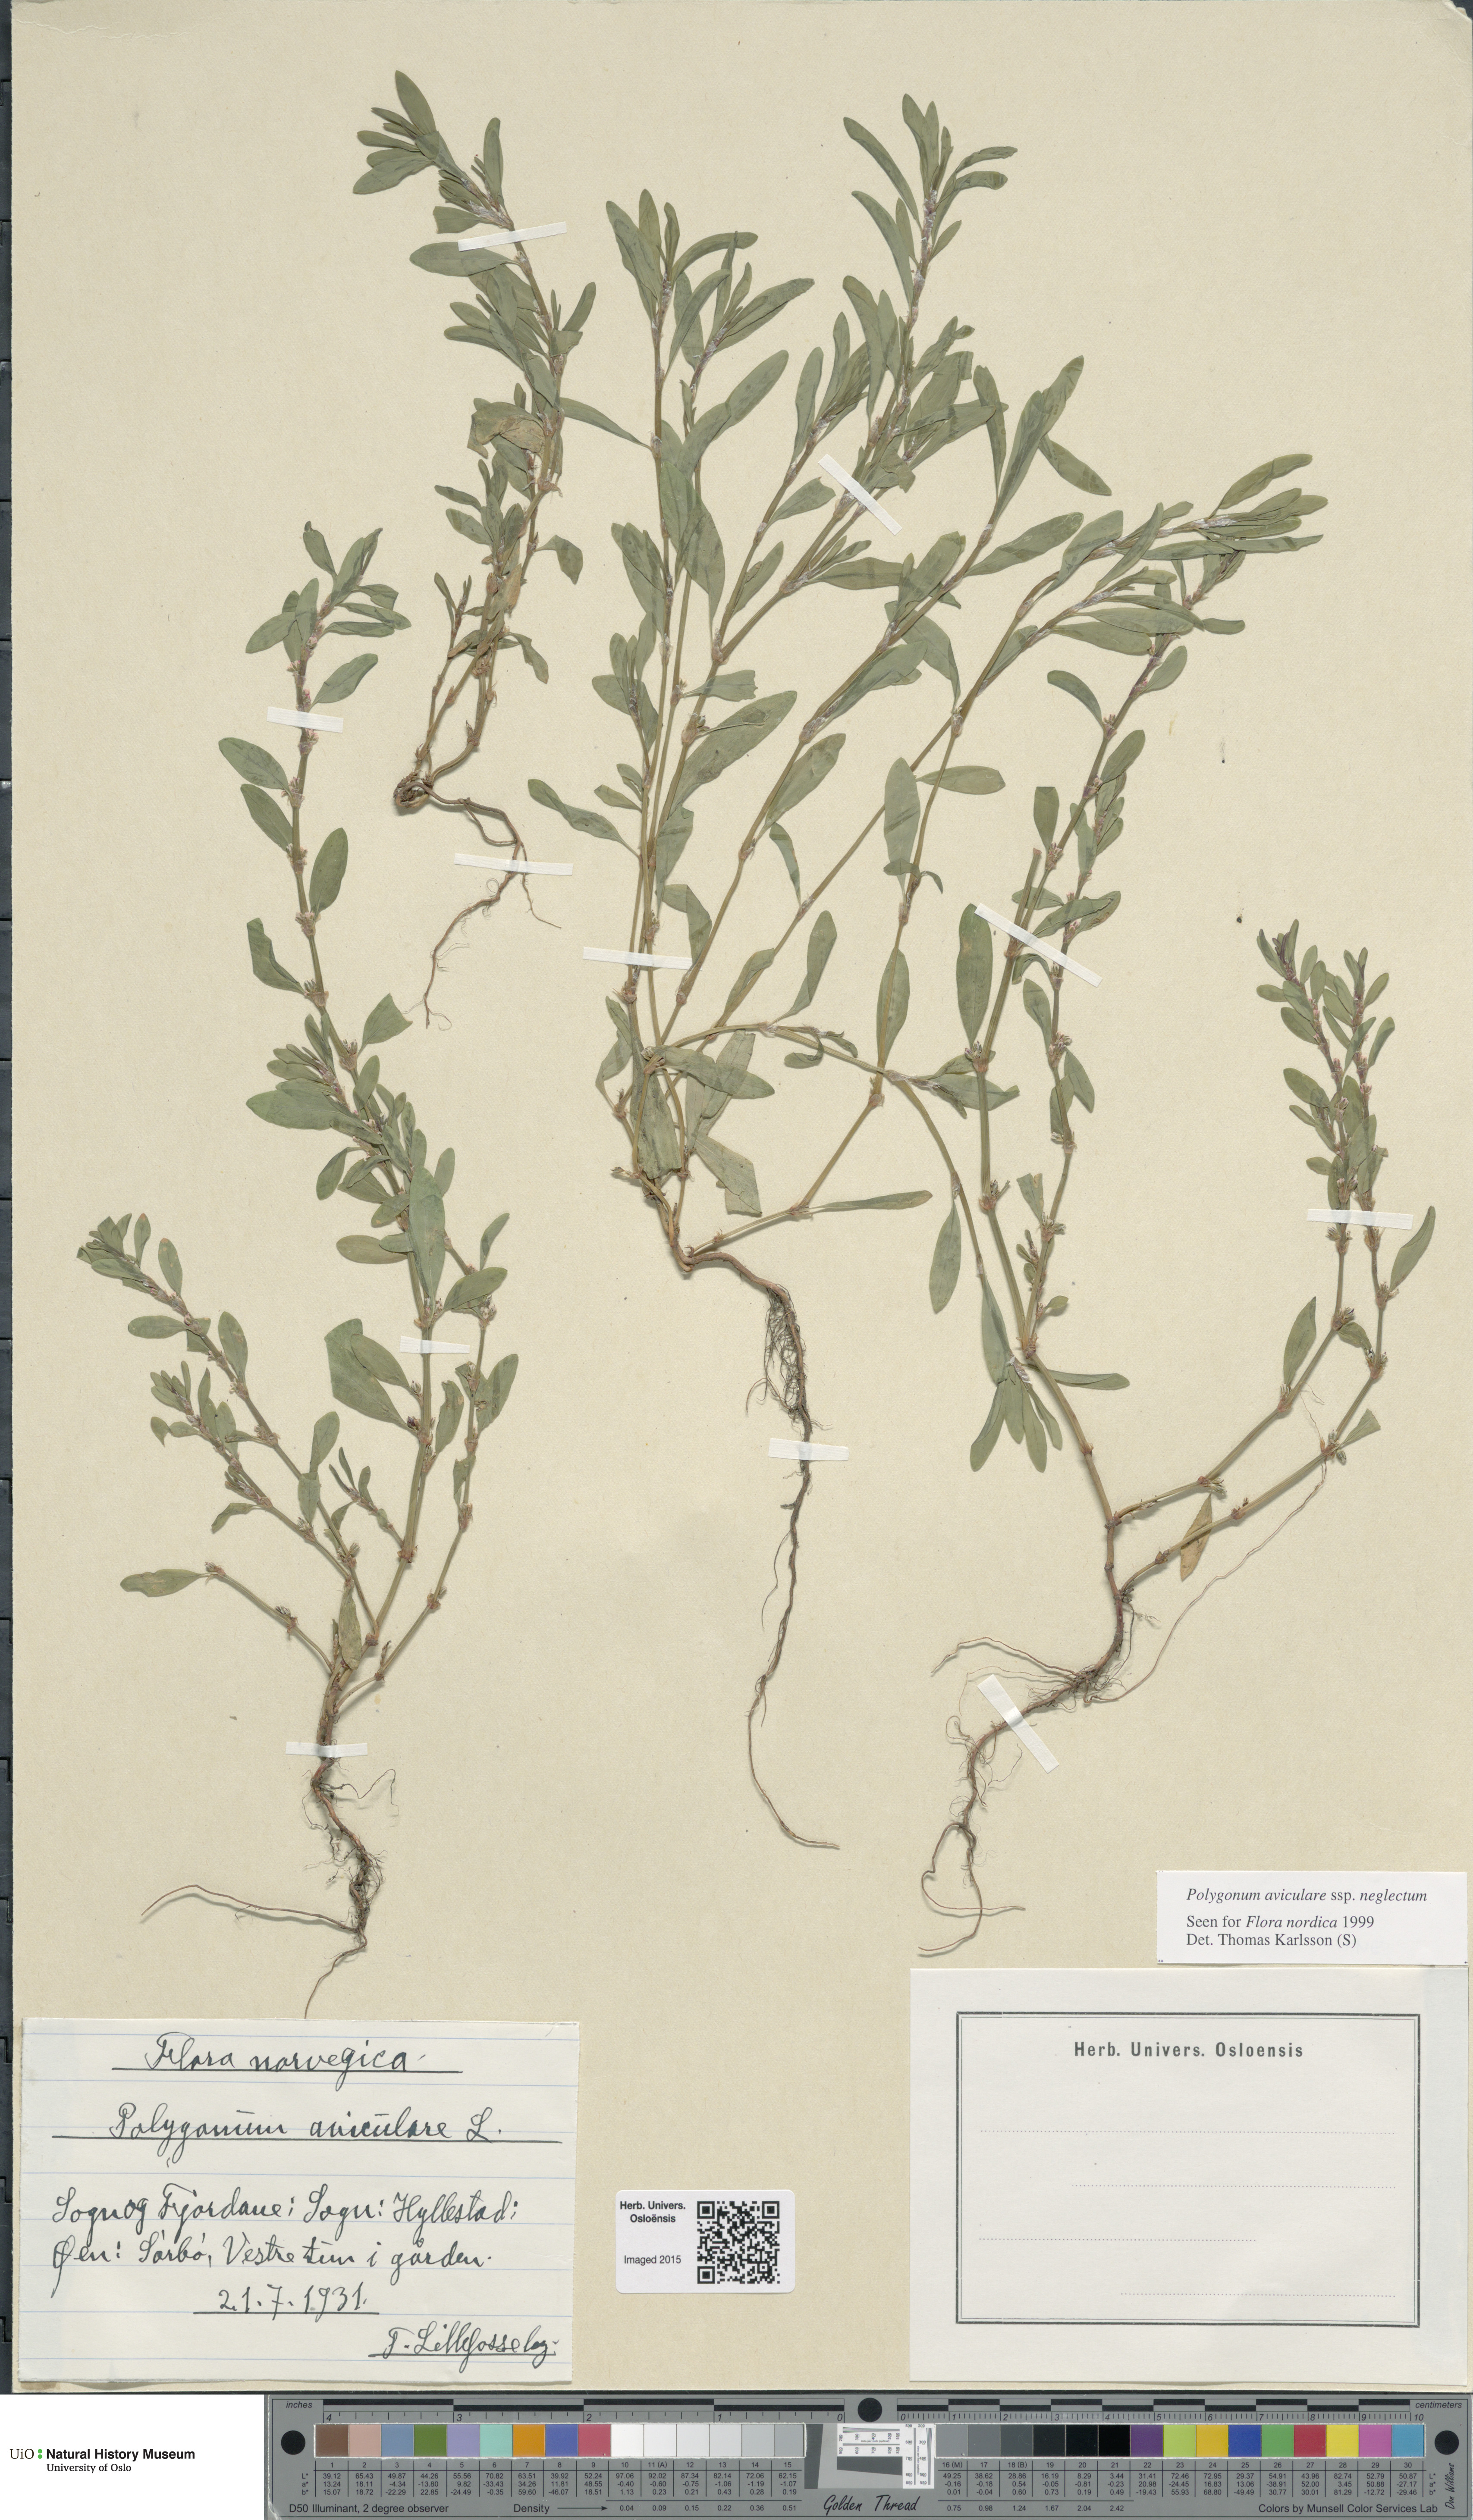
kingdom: Plantae
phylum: Tracheophyta
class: Magnoliopsida
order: Caryophyllales
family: Polygonaceae
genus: Polygonum
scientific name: Polygonum aviculare
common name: Prostrate knotweed
